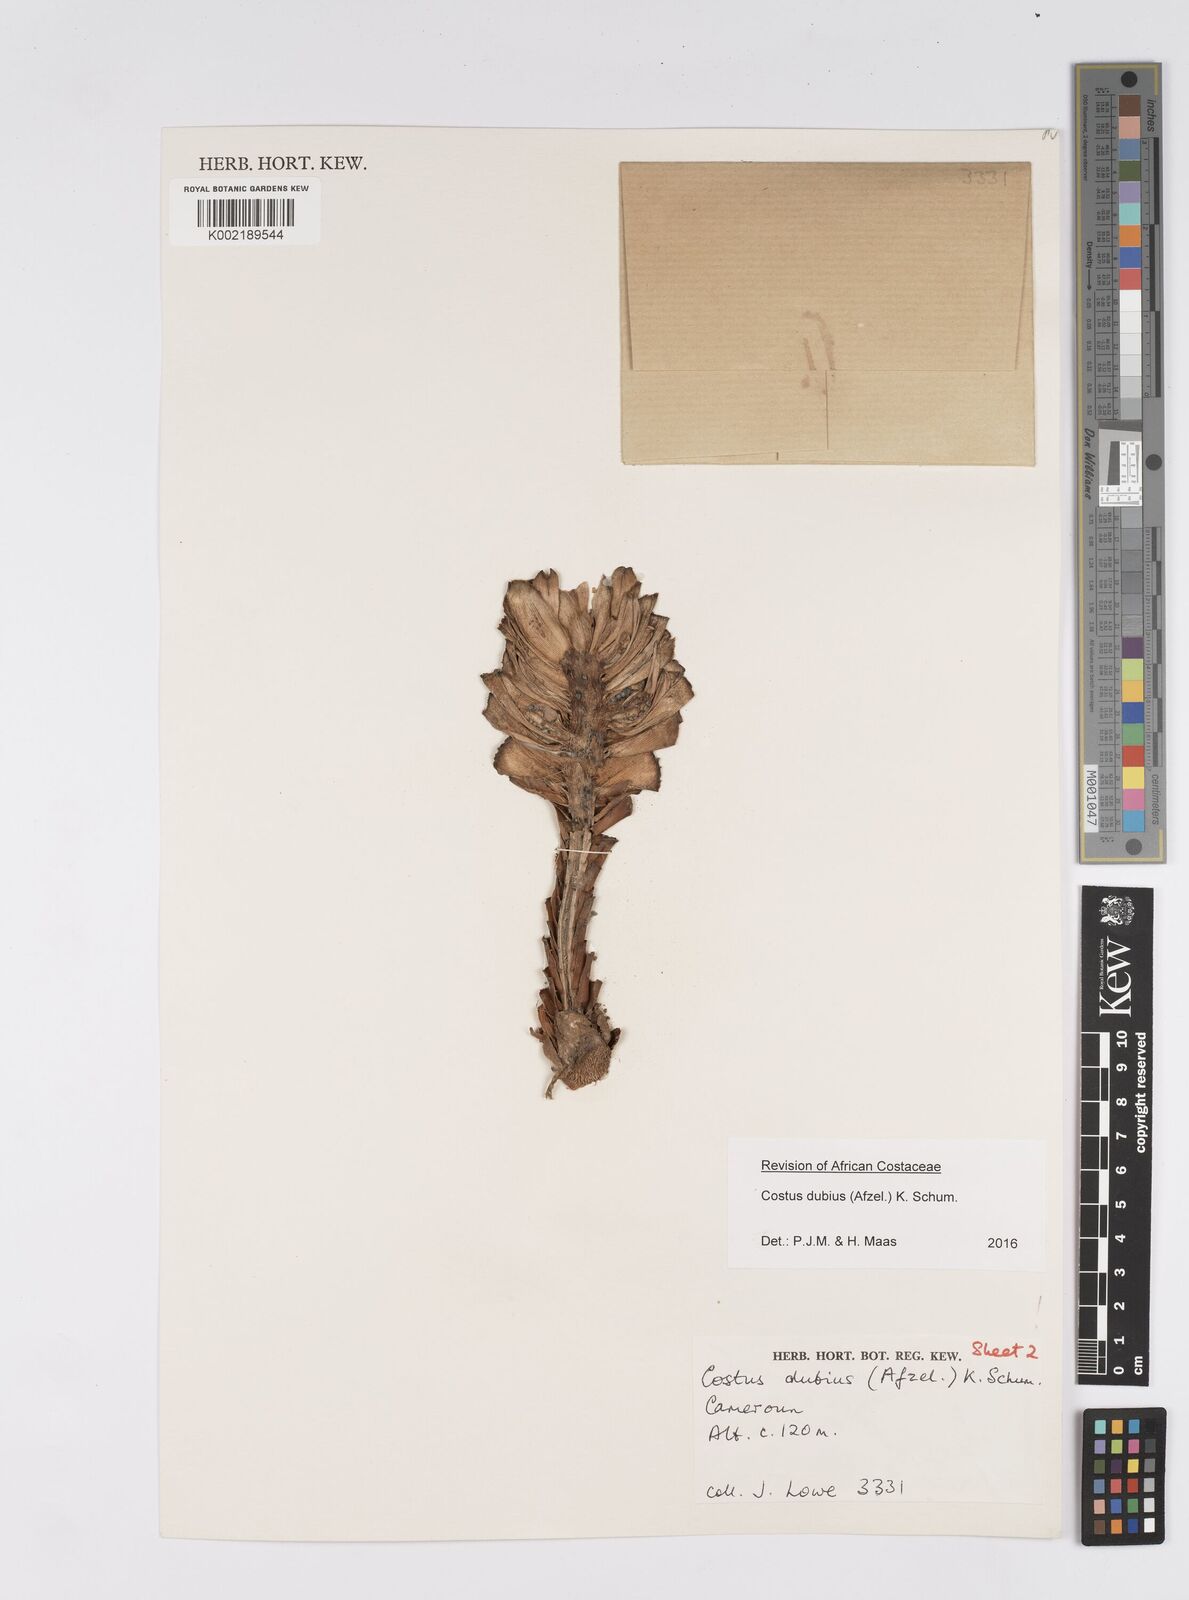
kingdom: Plantae
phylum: Tracheophyta
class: Liliopsida
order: Zingiberales
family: Costaceae
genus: Costus
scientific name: Costus dubius
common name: Costus
